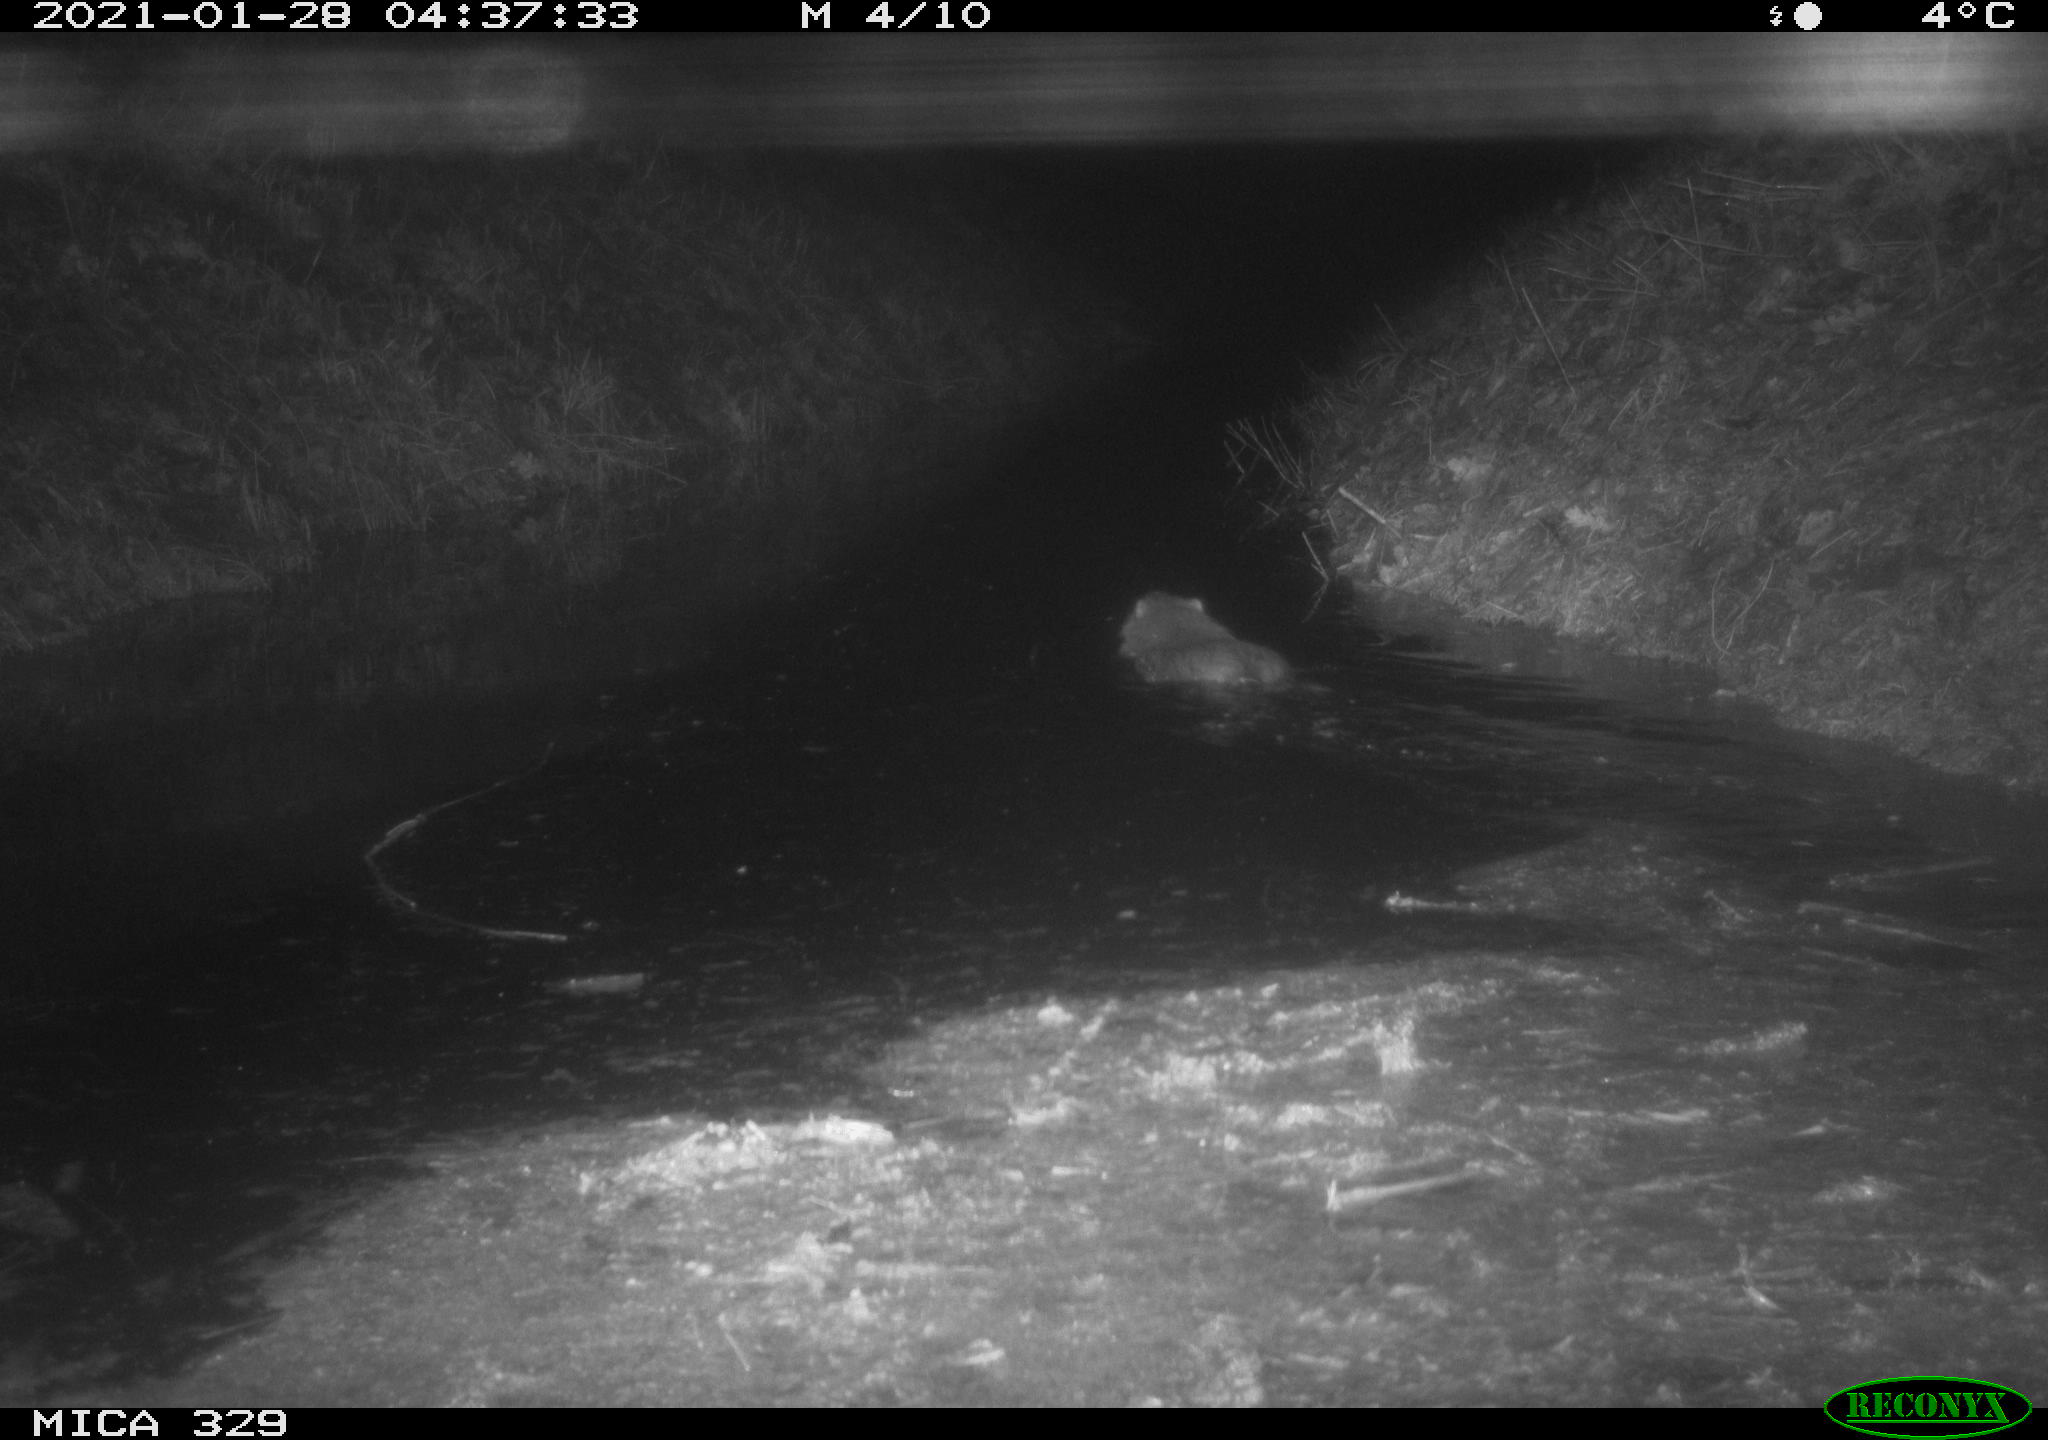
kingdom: Animalia
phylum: Chordata
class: Mammalia
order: Rodentia
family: Myocastoridae
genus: Myocastor
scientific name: Myocastor coypus
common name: Coypu
